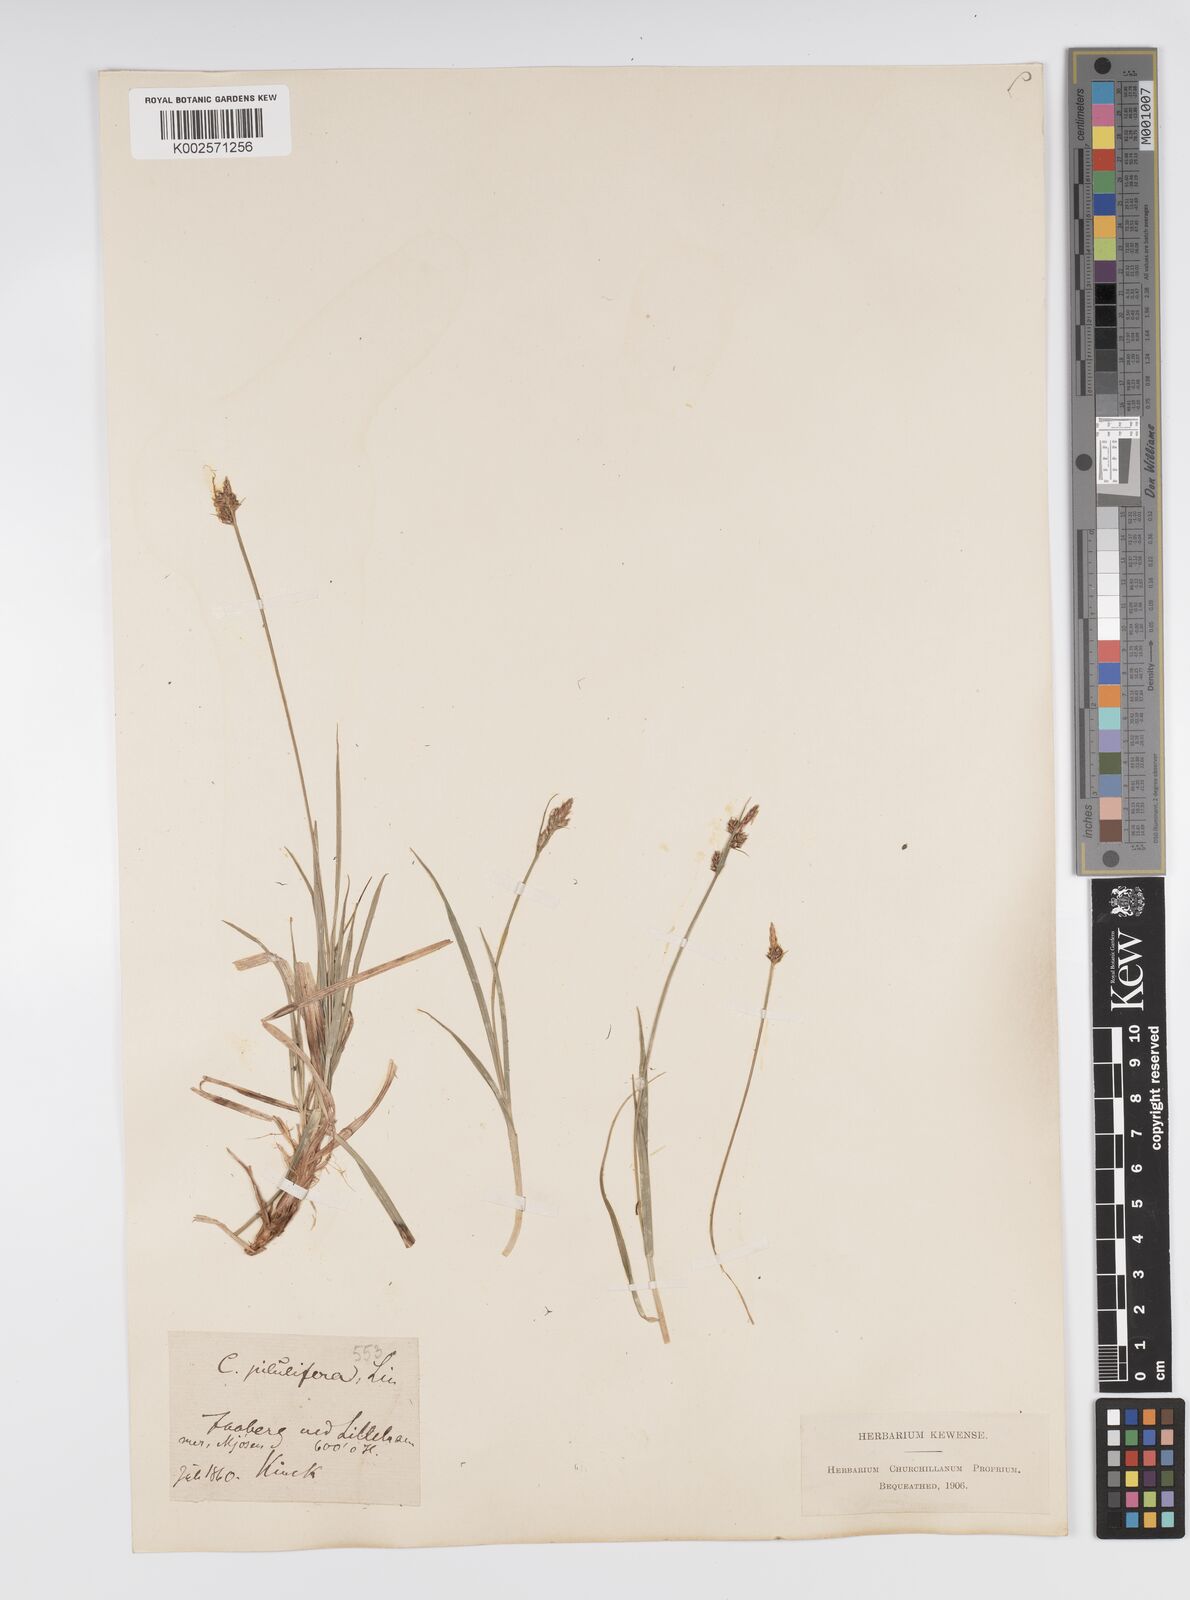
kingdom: Plantae
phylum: Tracheophyta
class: Liliopsida
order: Poales
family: Cyperaceae
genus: Carex
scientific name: Carex pilulifera
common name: Pill sedge
